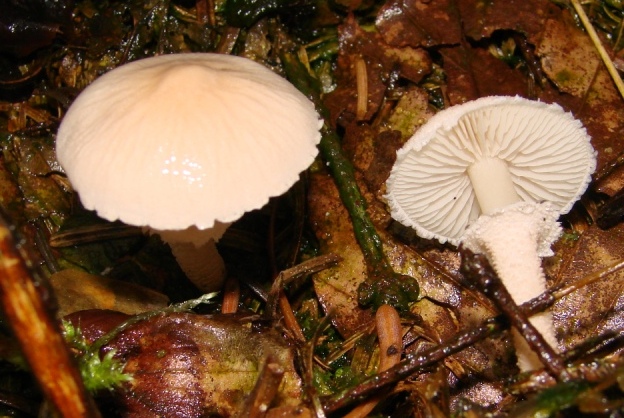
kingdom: Fungi
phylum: Basidiomycota
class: Agaricomycetes
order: Agaricales
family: Tricholomataceae
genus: Cystoderma
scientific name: Cystoderma carcharias
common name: rødgrå grynhat
